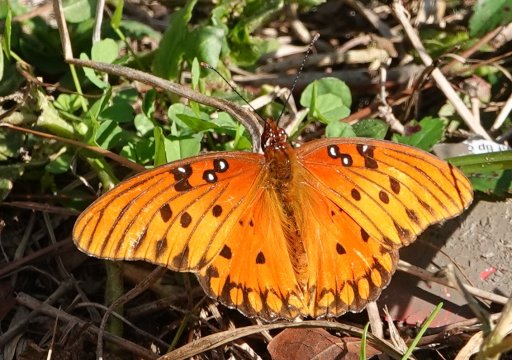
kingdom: Animalia
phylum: Arthropoda
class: Insecta
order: Lepidoptera
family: Nymphalidae
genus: Dione
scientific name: Dione vanillae
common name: Gulf Fritillary
